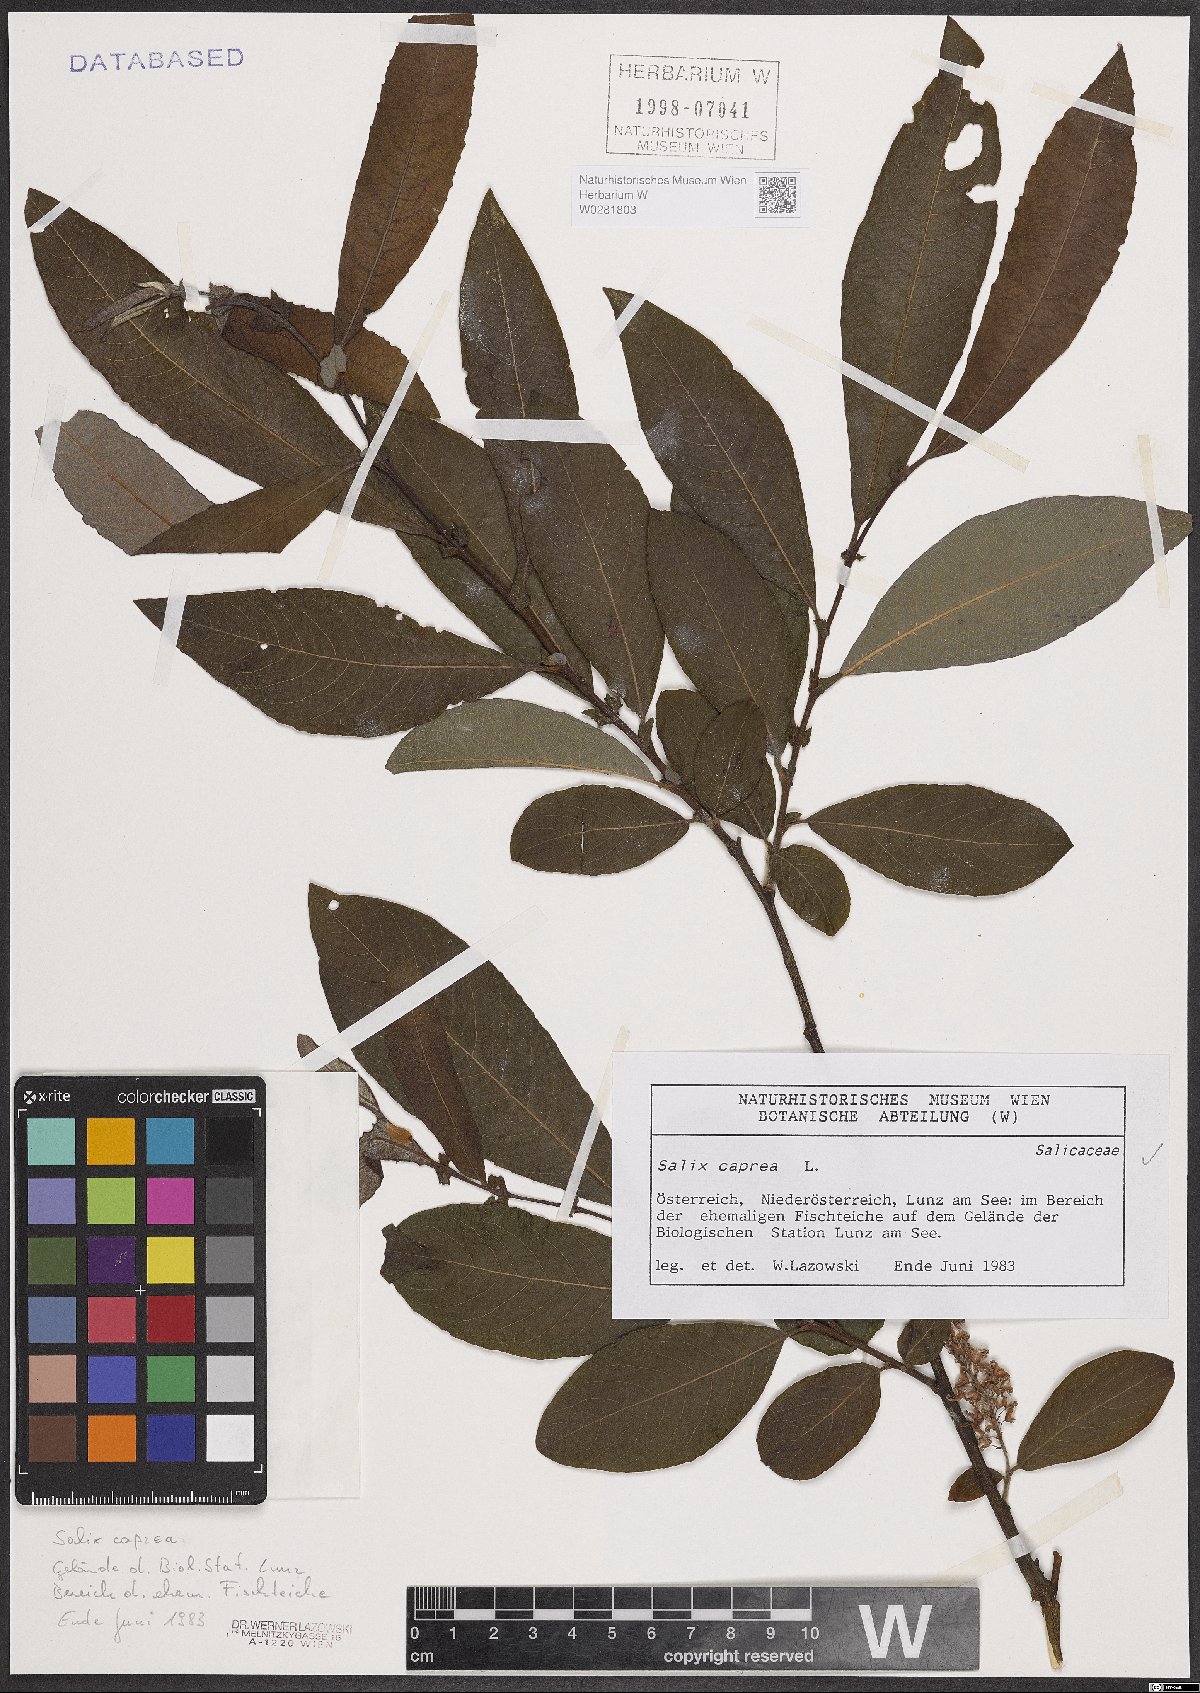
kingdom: Plantae
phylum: Tracheophyta
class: Magnoliopsida
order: Malpighiales
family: Salicaceae
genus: Salix
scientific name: Salix caprea
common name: Goat willow
